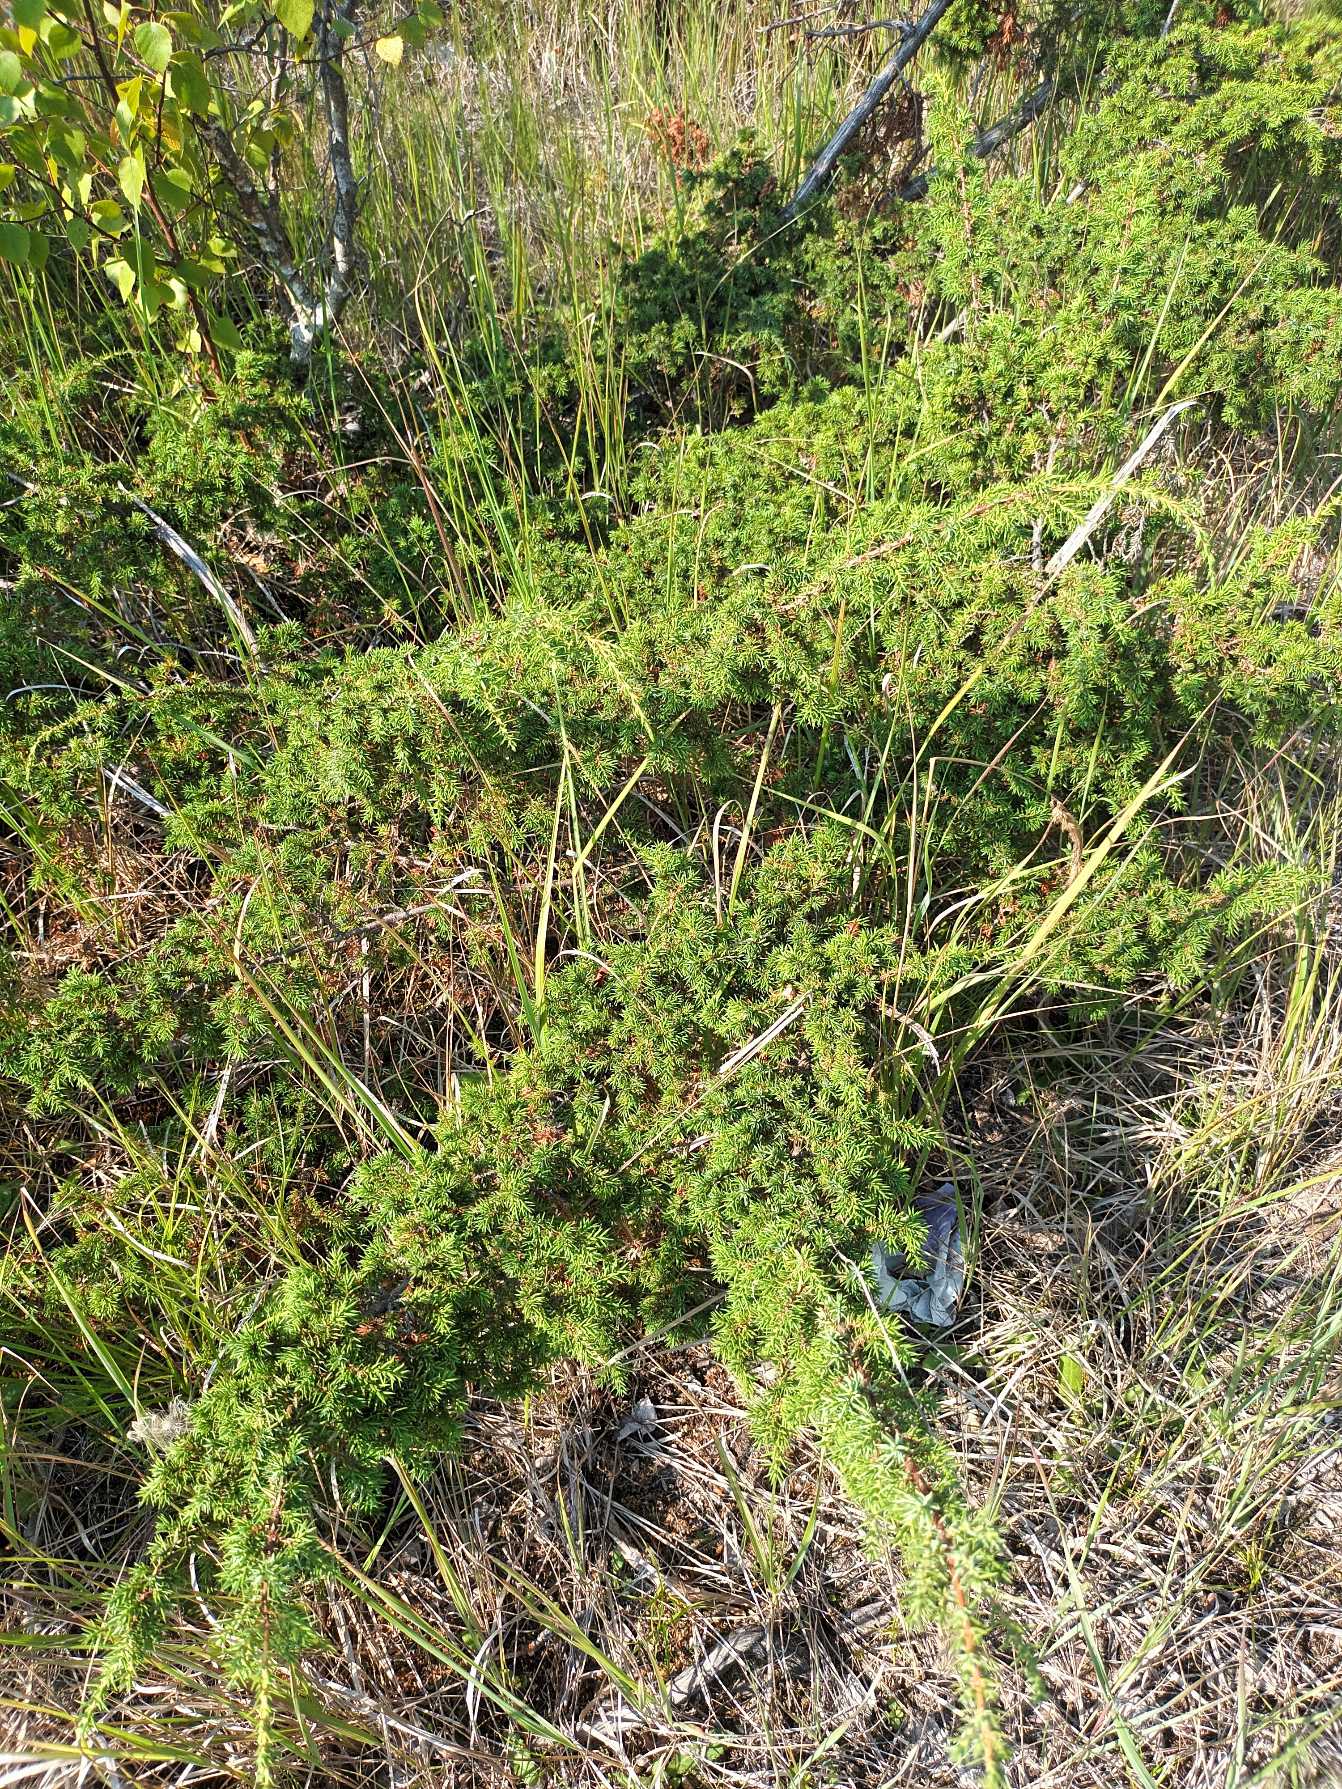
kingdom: Plantae
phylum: Tracheophyta
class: Pinopsida
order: Pinales
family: Cupressaceae
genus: Juniperus
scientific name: Juniperus communis
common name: Almindelig ene
